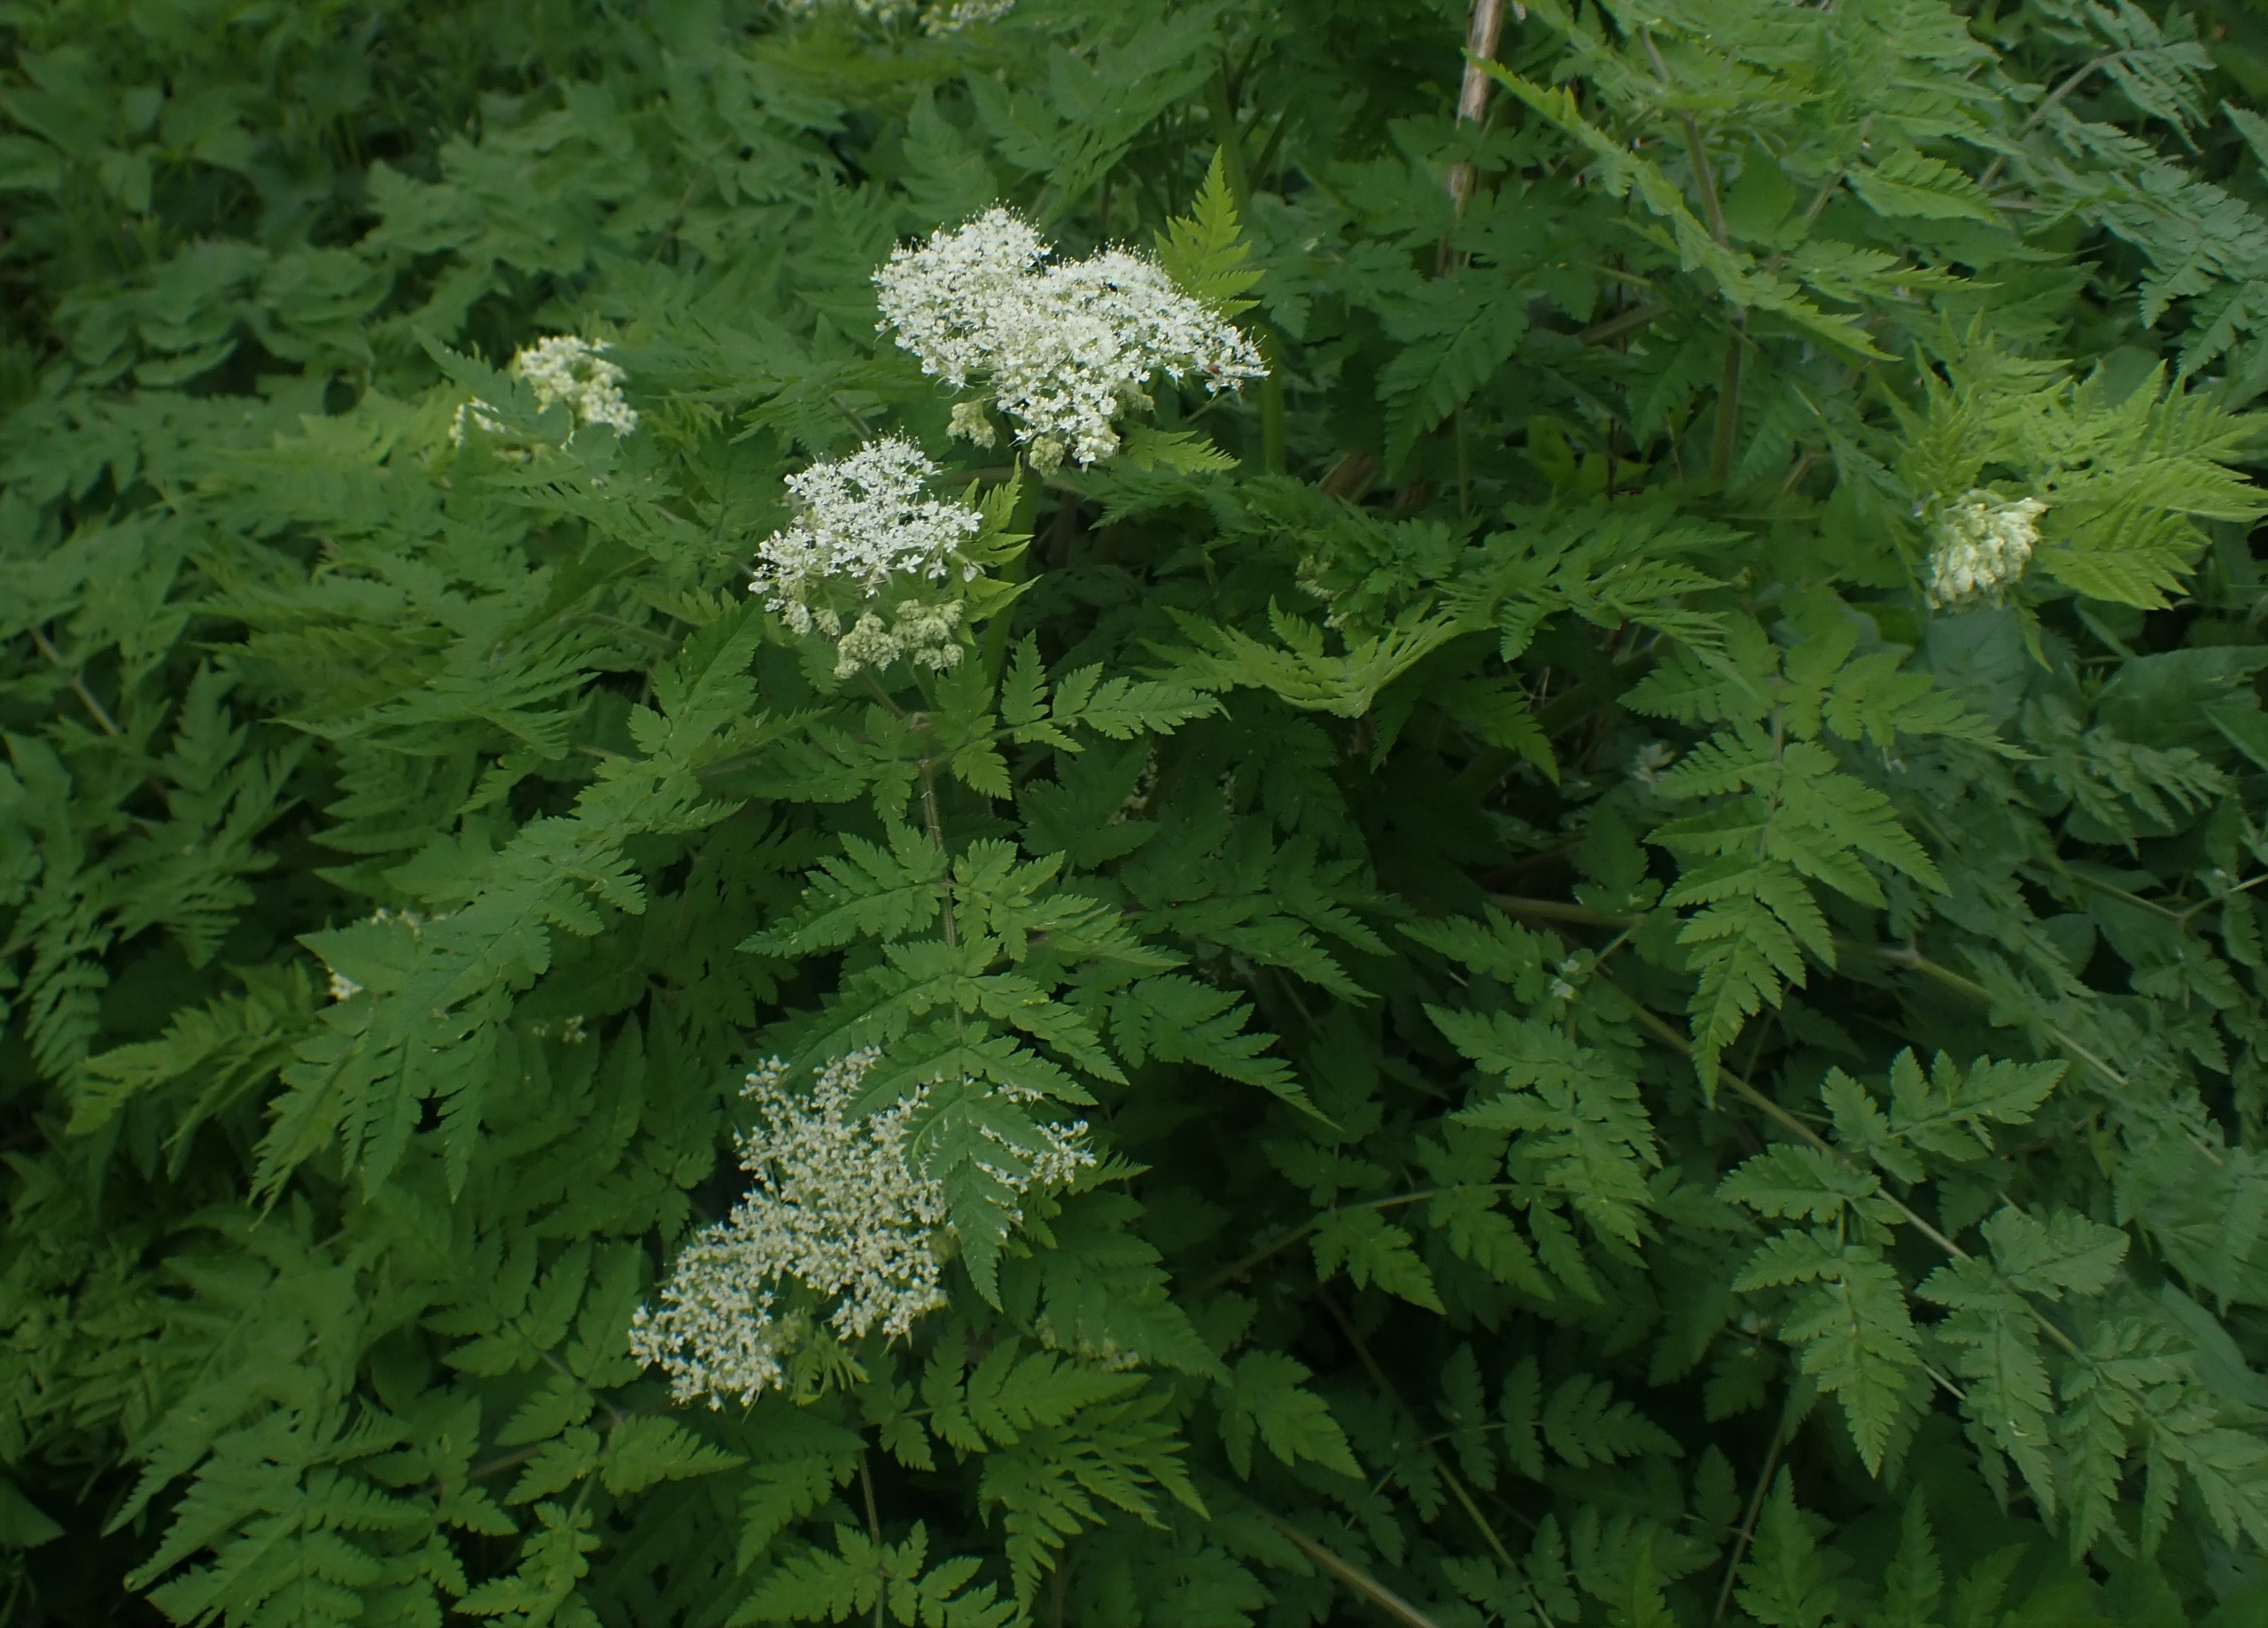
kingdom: Plantae
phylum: Tracheophyta
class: Magnoliopsida
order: Apiales
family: Apiaceae
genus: Myrrhis
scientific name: Myrrhis odorata
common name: Sødskærm
